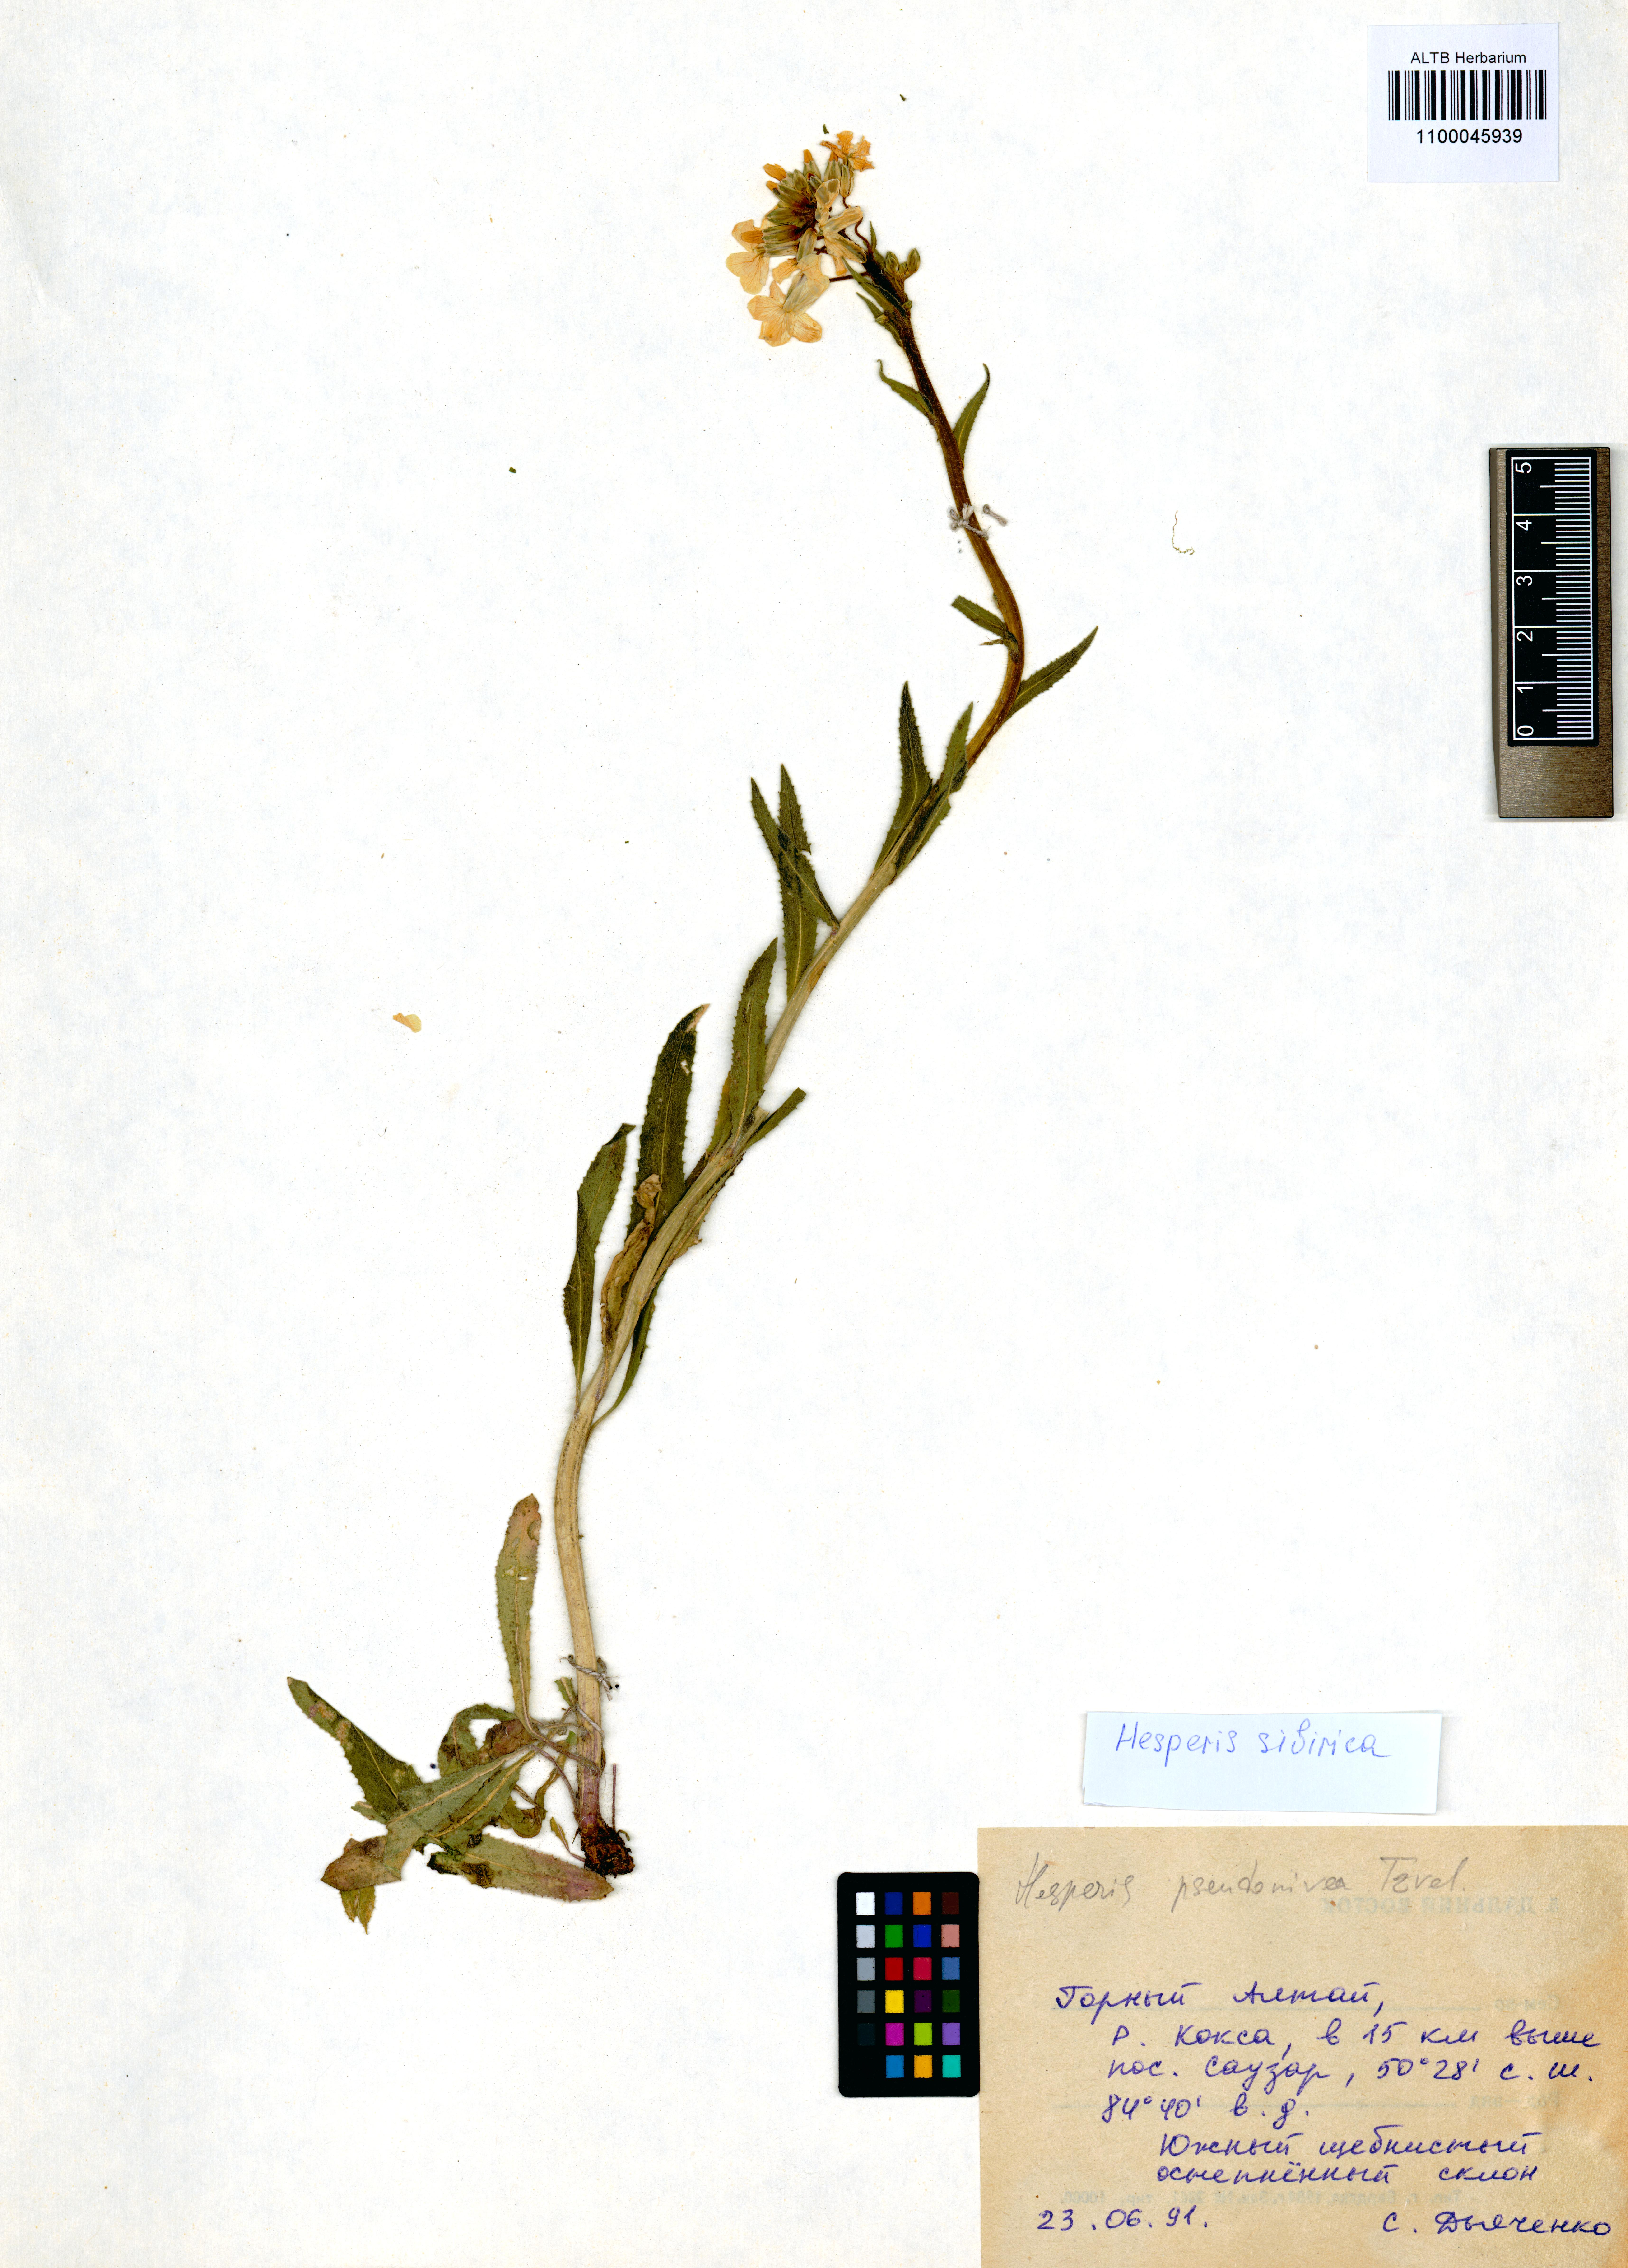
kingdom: Plantae
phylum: Tracheophyta
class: Magnoliopsida
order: Brassicales
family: Brassicaceae
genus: Hesperis
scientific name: Hesperis sibirica
